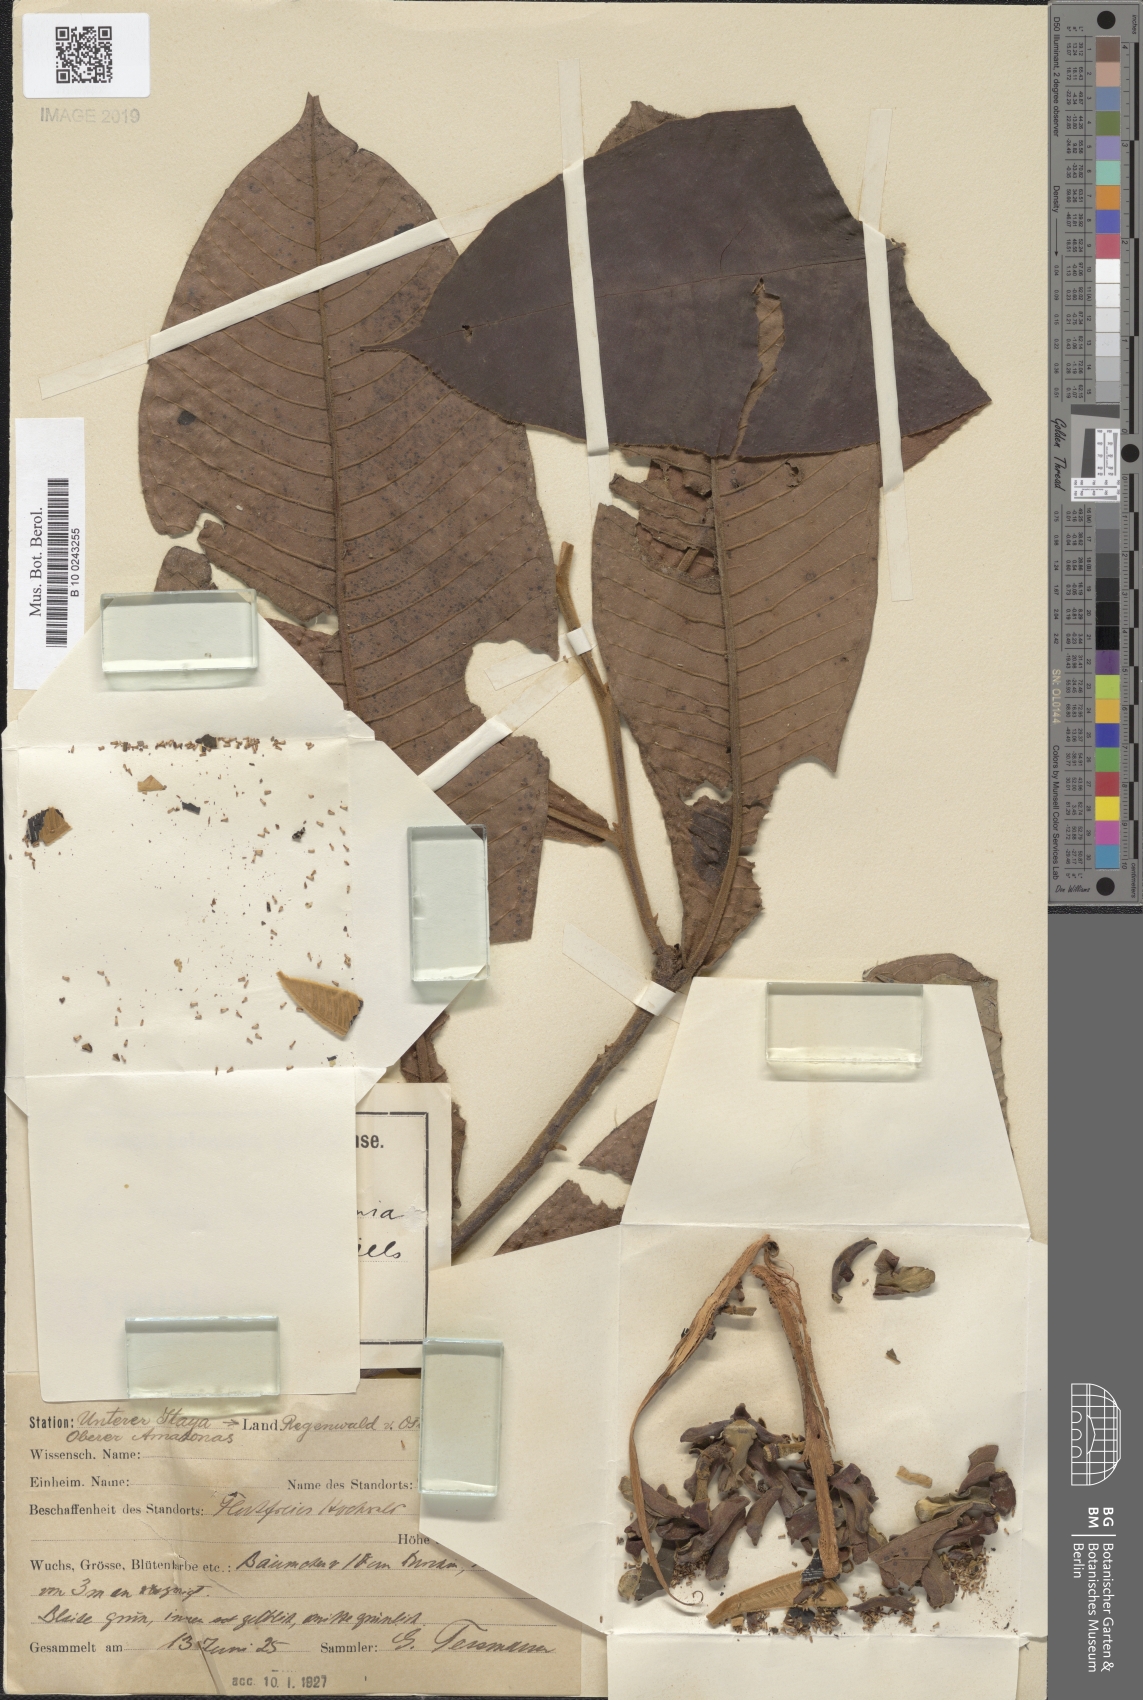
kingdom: Plantae
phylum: Tracheophyta
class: Magnoliopsida
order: Magnoliales
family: Annonaceae
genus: Guatteria
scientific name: Guatteria guianensis
